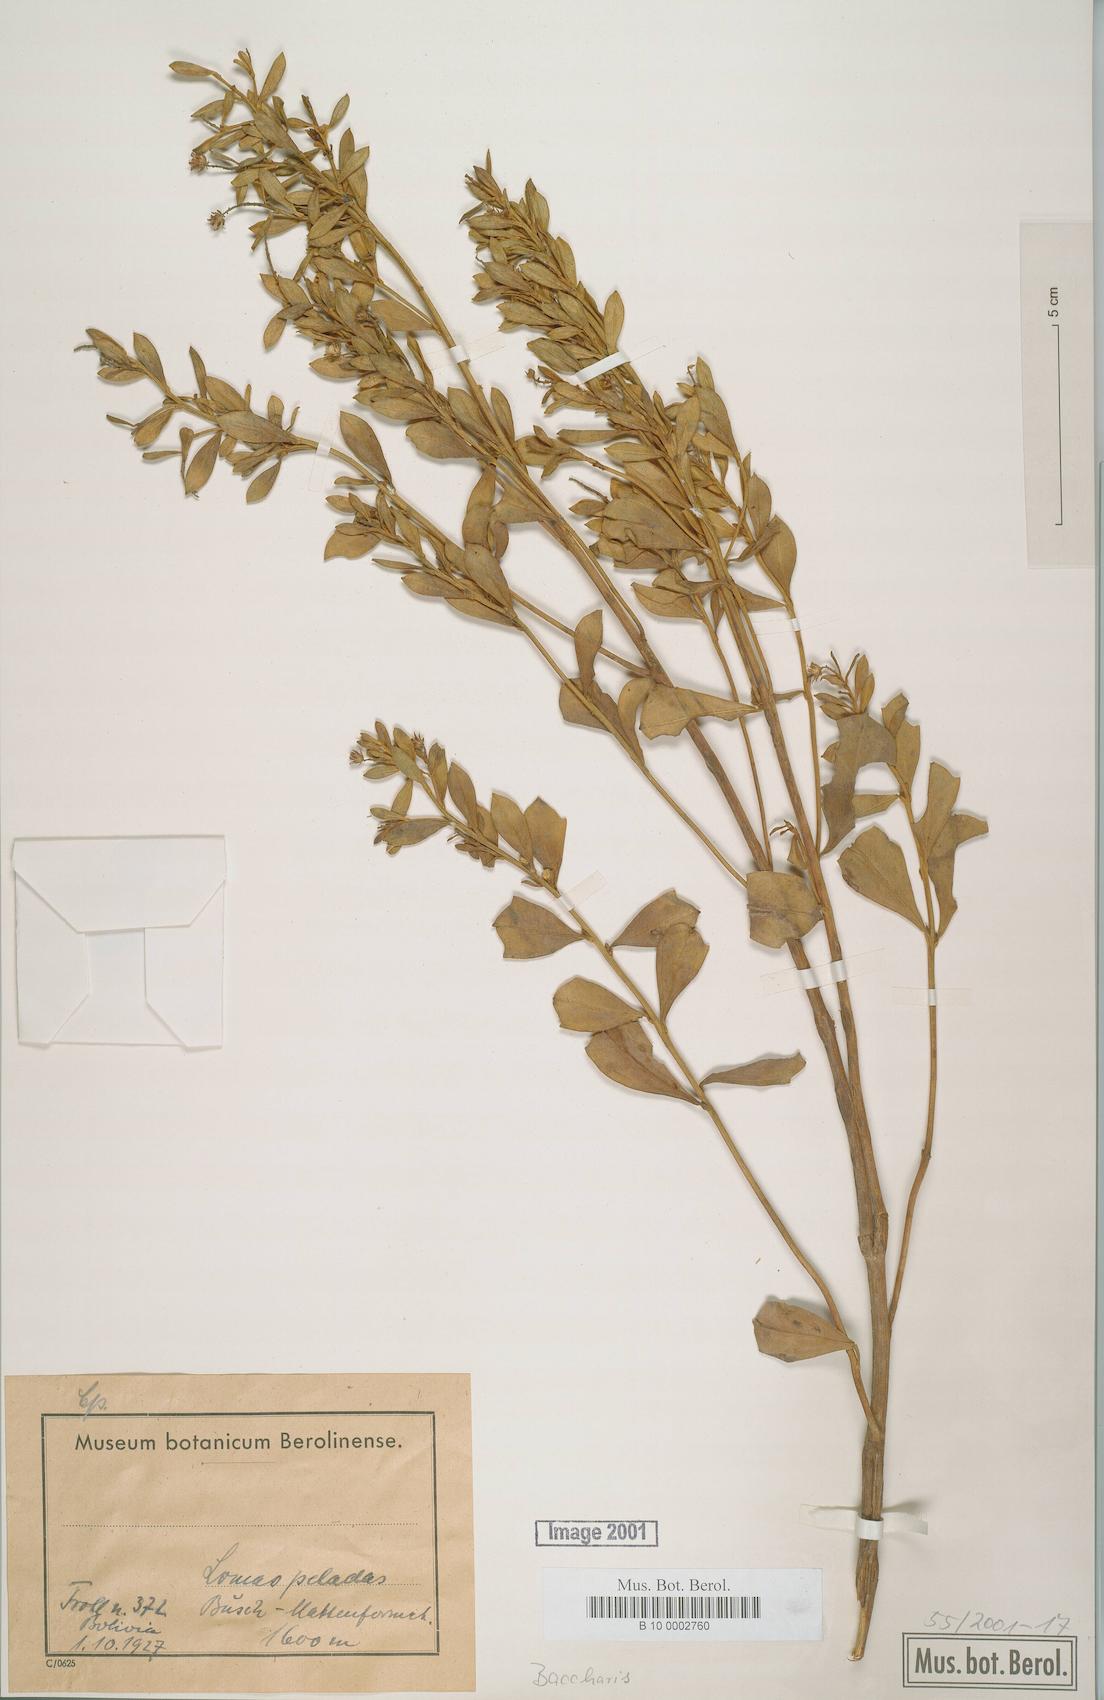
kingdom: Plantae
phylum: Tracheophyta
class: Magnoliopsida
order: Asterales
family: Asteraceae
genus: Baccharis
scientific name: Baccharis
